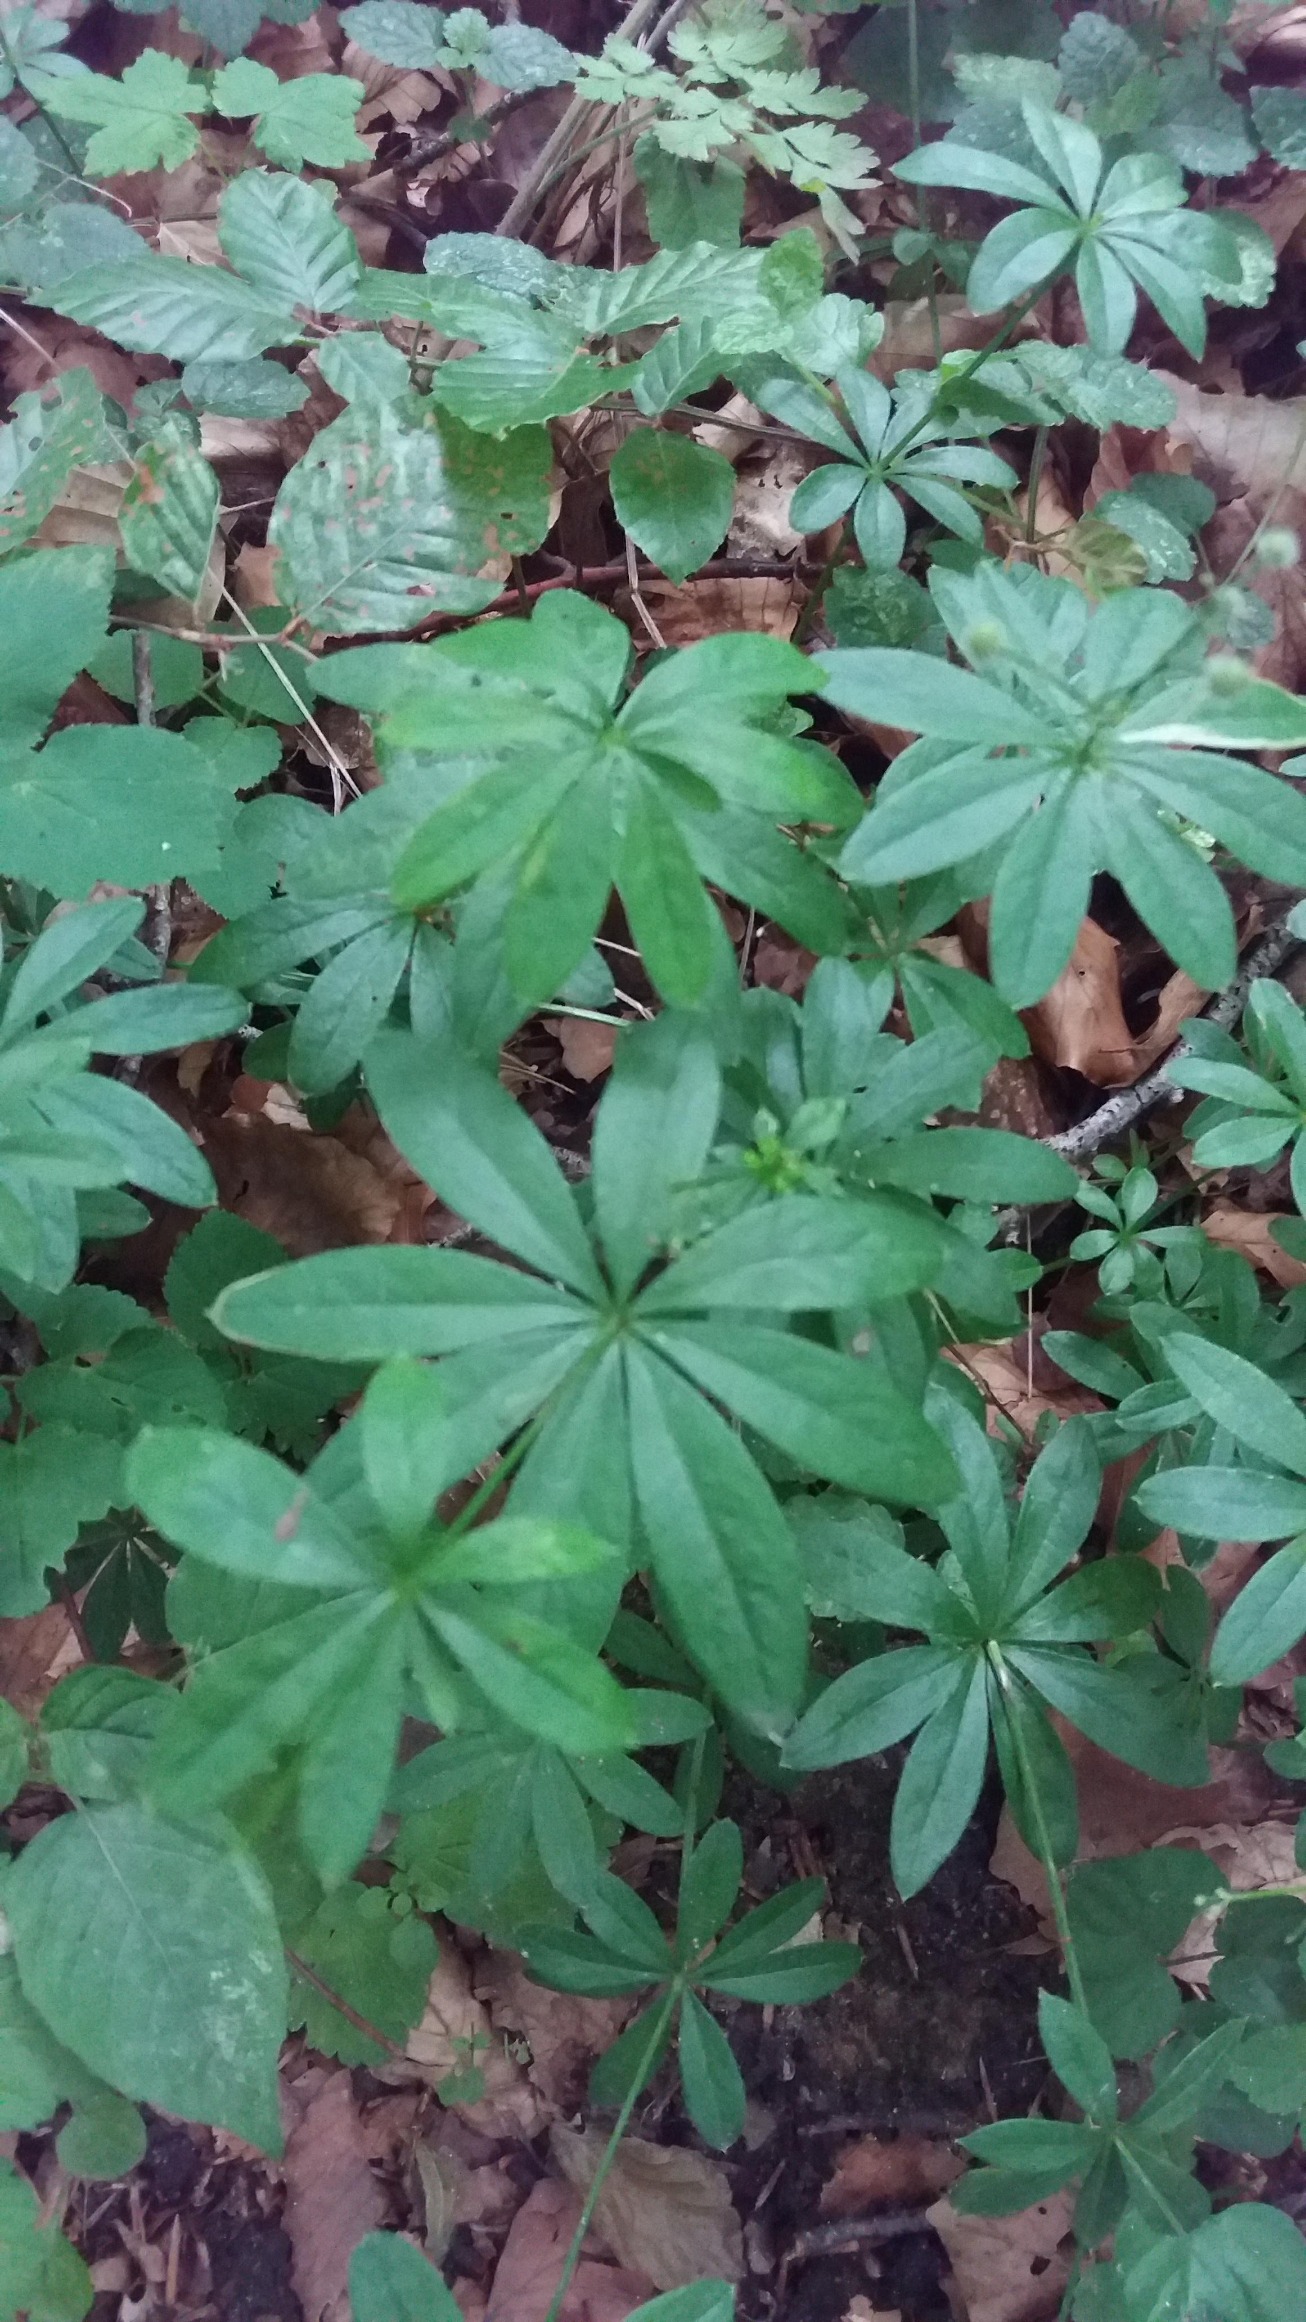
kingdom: Plantae
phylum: Tracheophyta
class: Magnoliopsida
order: Gentianales
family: Rubiaceae
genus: Galium
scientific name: Galium odoratum
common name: Skovmærke
